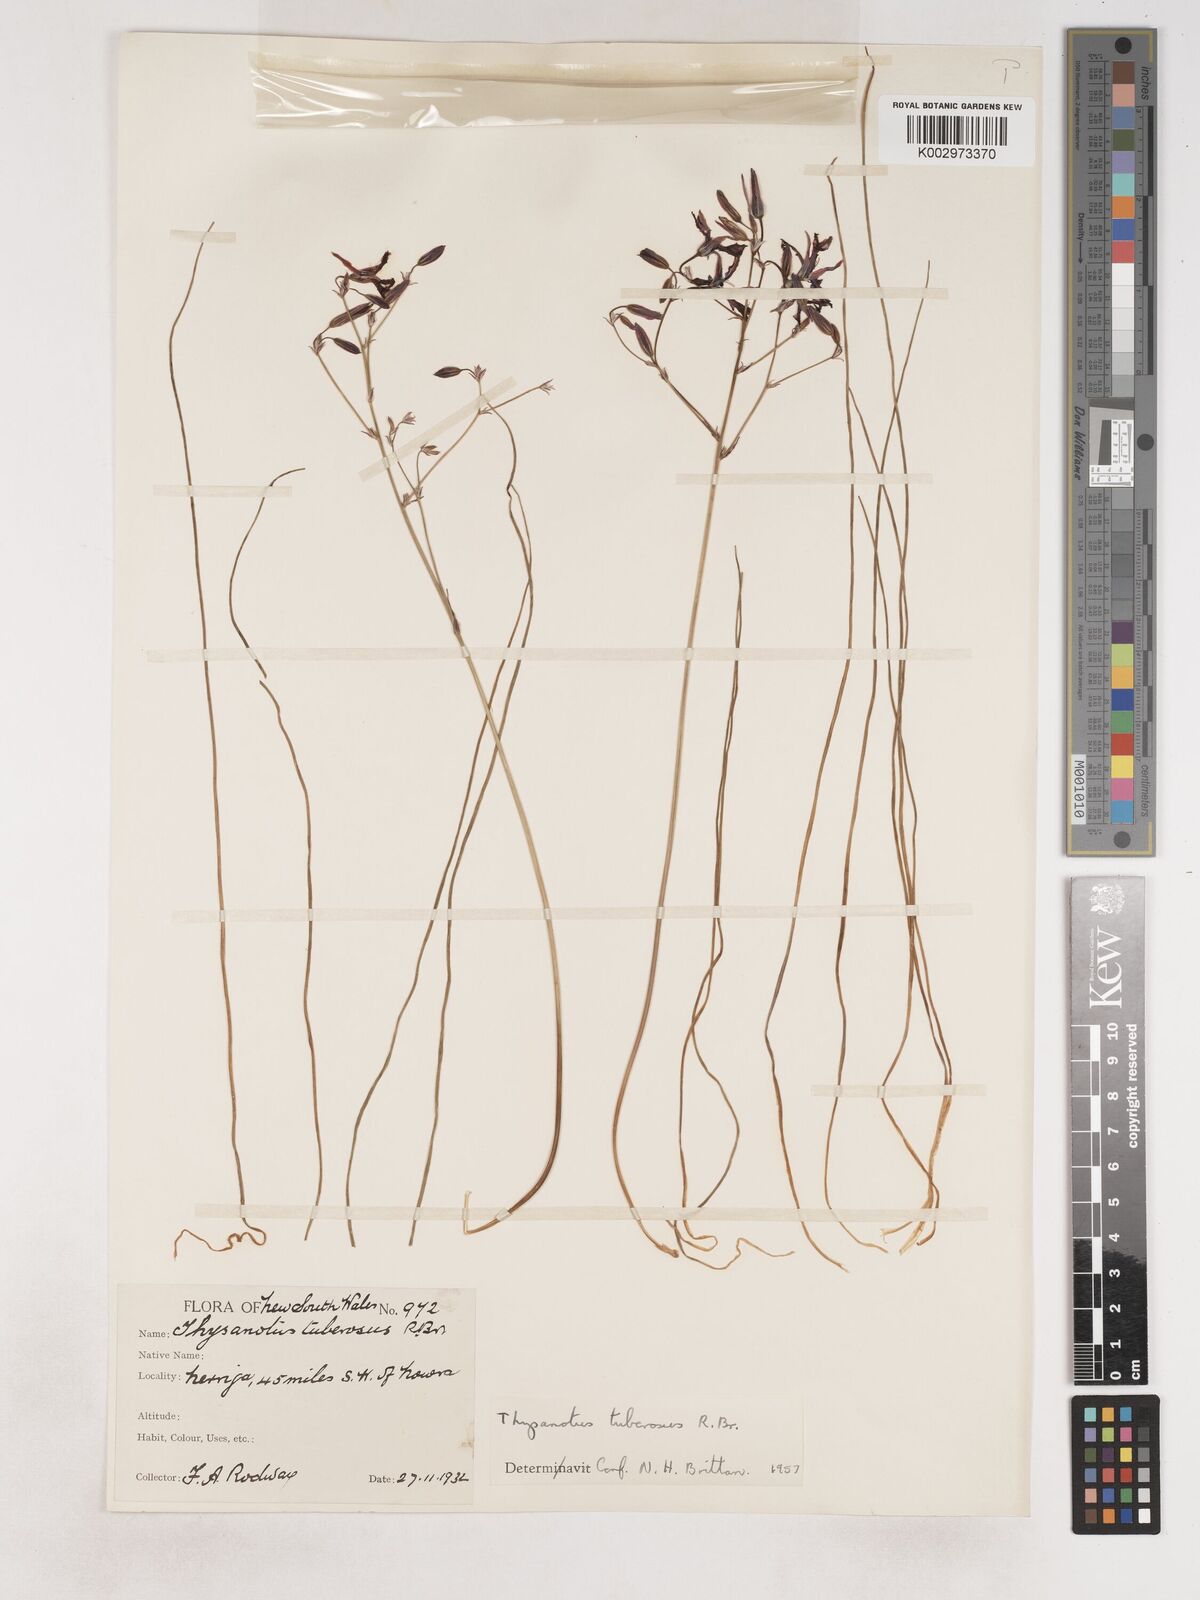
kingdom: Plantae
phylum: Tracheophyta
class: Liliopsida
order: Asparagales
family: Asparagaceae
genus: Thysanotus
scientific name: Thysanotus tuberosus
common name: Common fringed-lily
